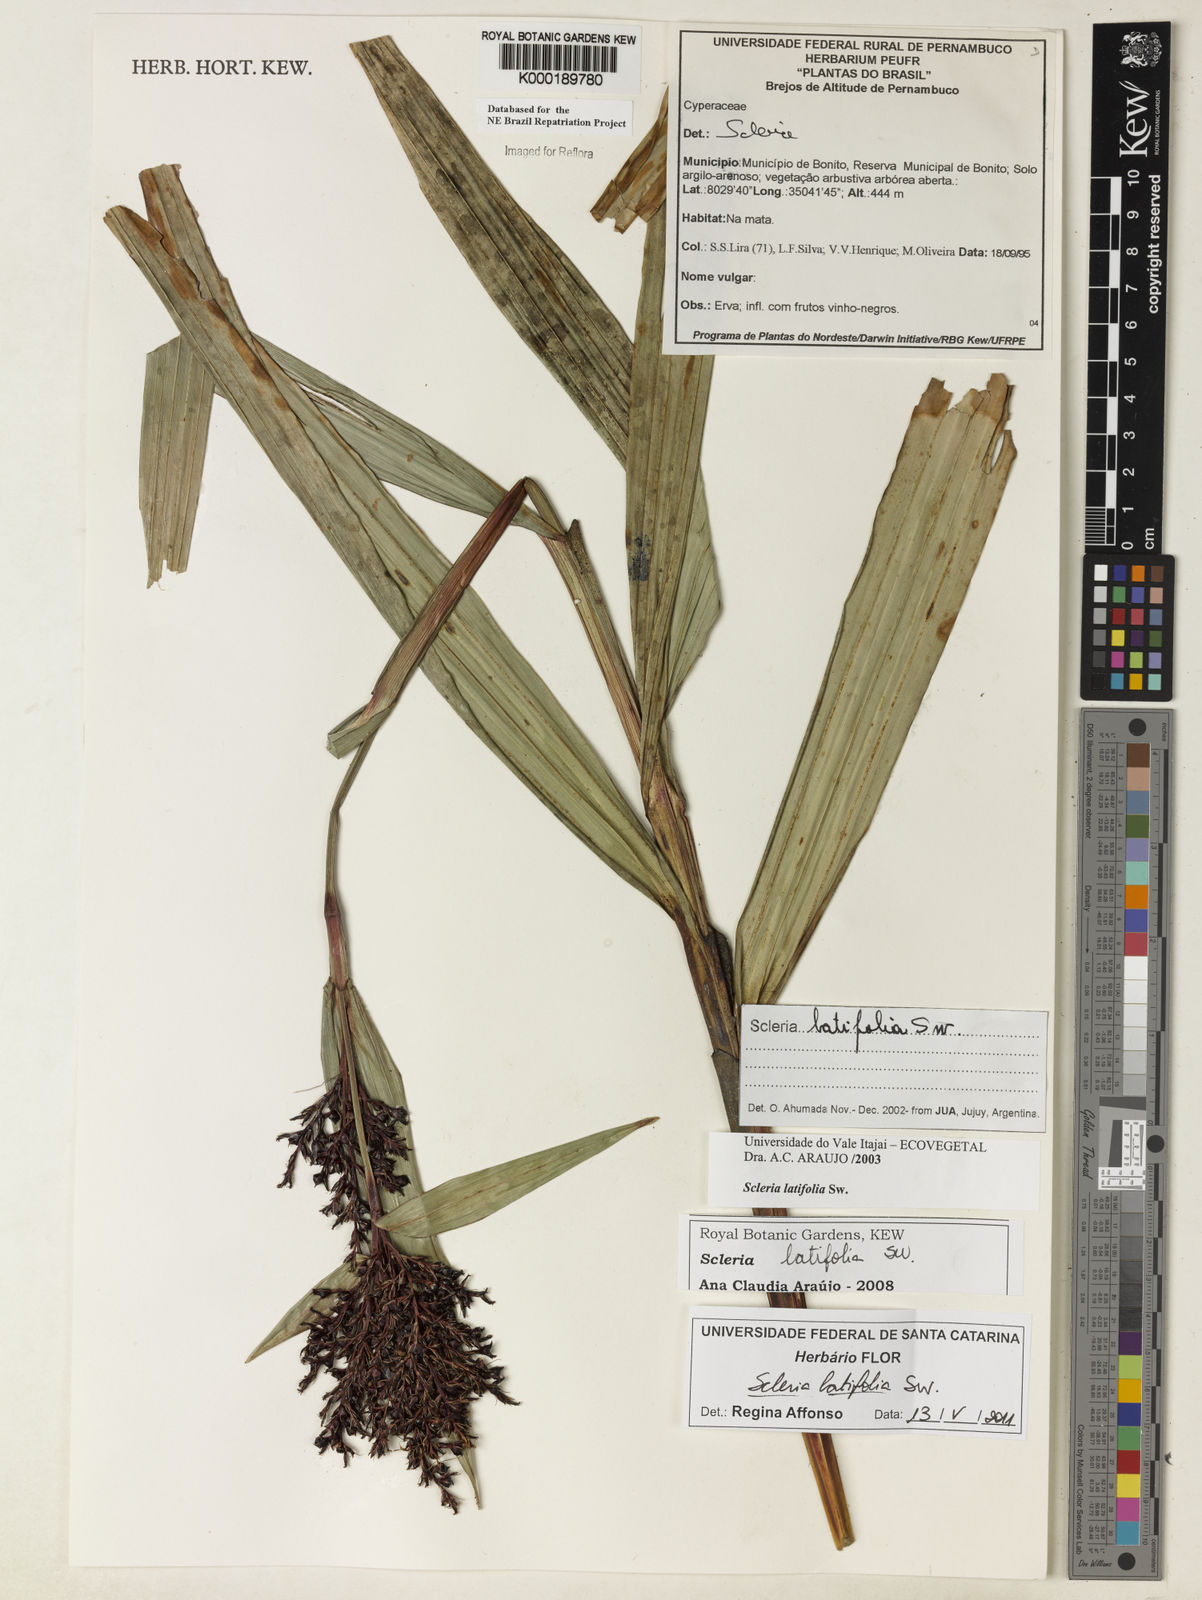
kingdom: Plantae
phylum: Tracheophyta
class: Liliopsida
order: Poales
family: Cyperaceae
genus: Scleria
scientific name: Scleria latifolia
